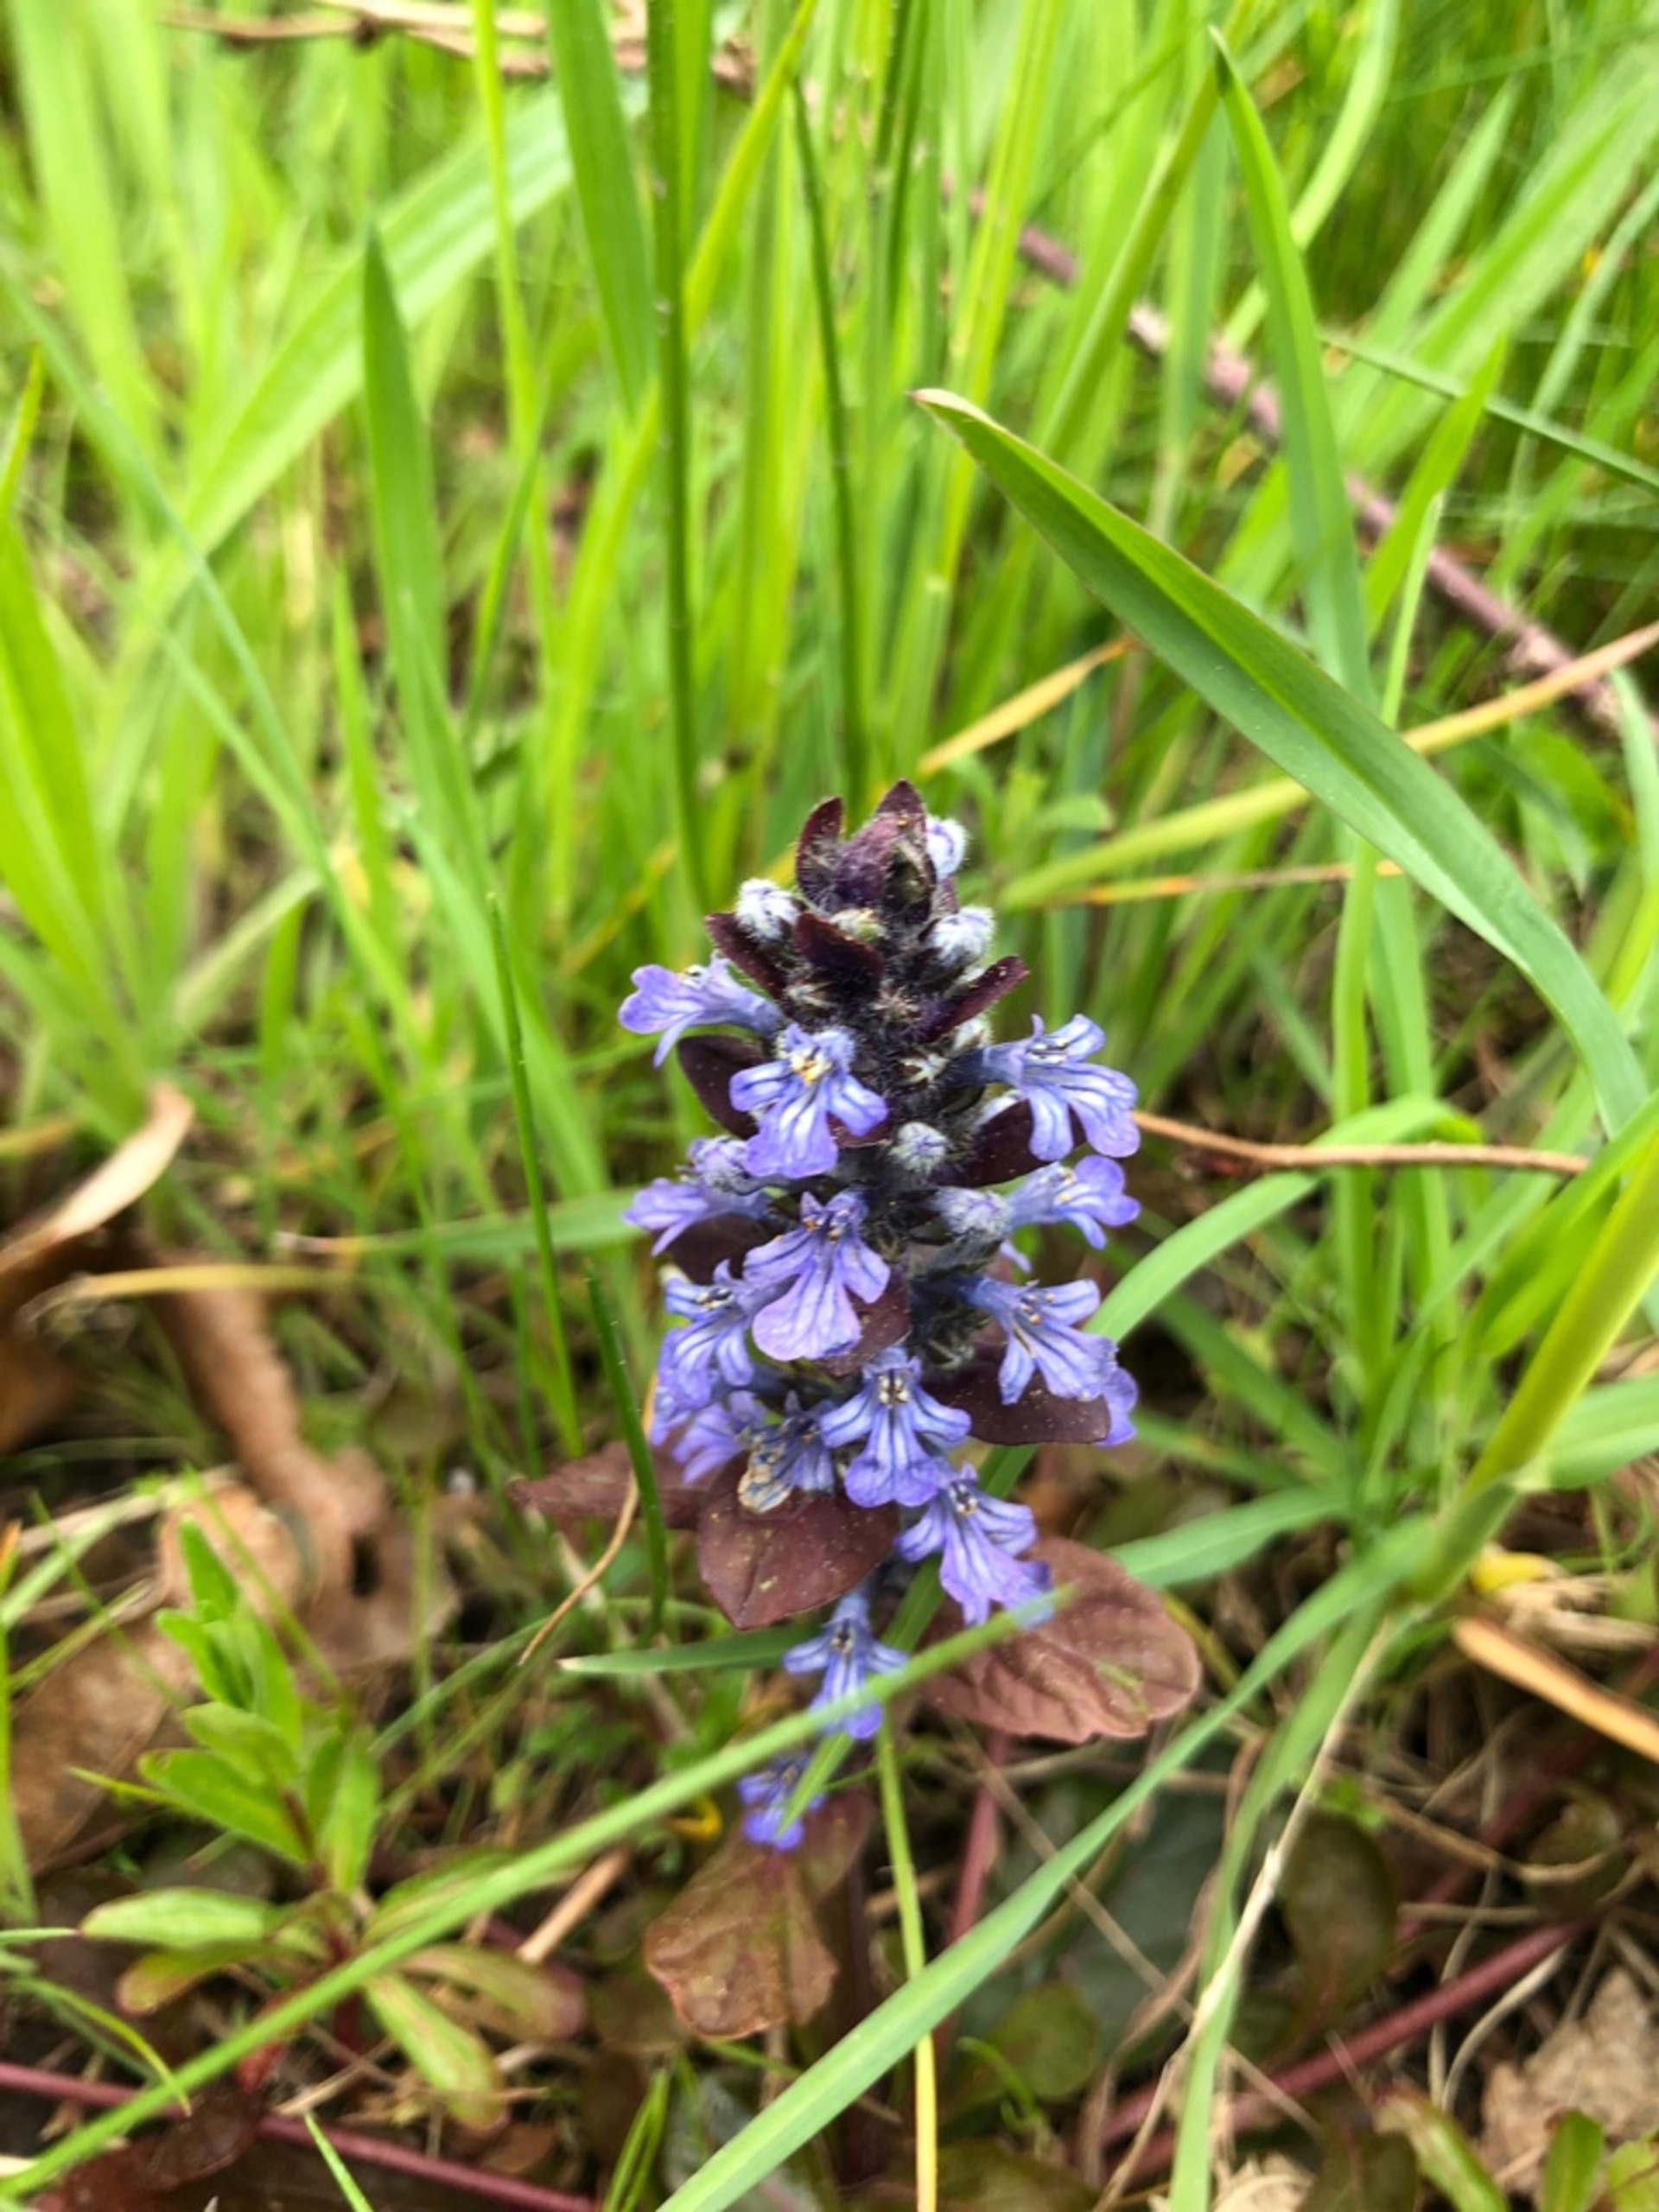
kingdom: Plantae
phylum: Tracheophyta
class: Magnoliopsida
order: Lamiales
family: Lamiaceae
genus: Ajuga
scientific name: Ajuga reptans
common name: Krybende læbeløs
